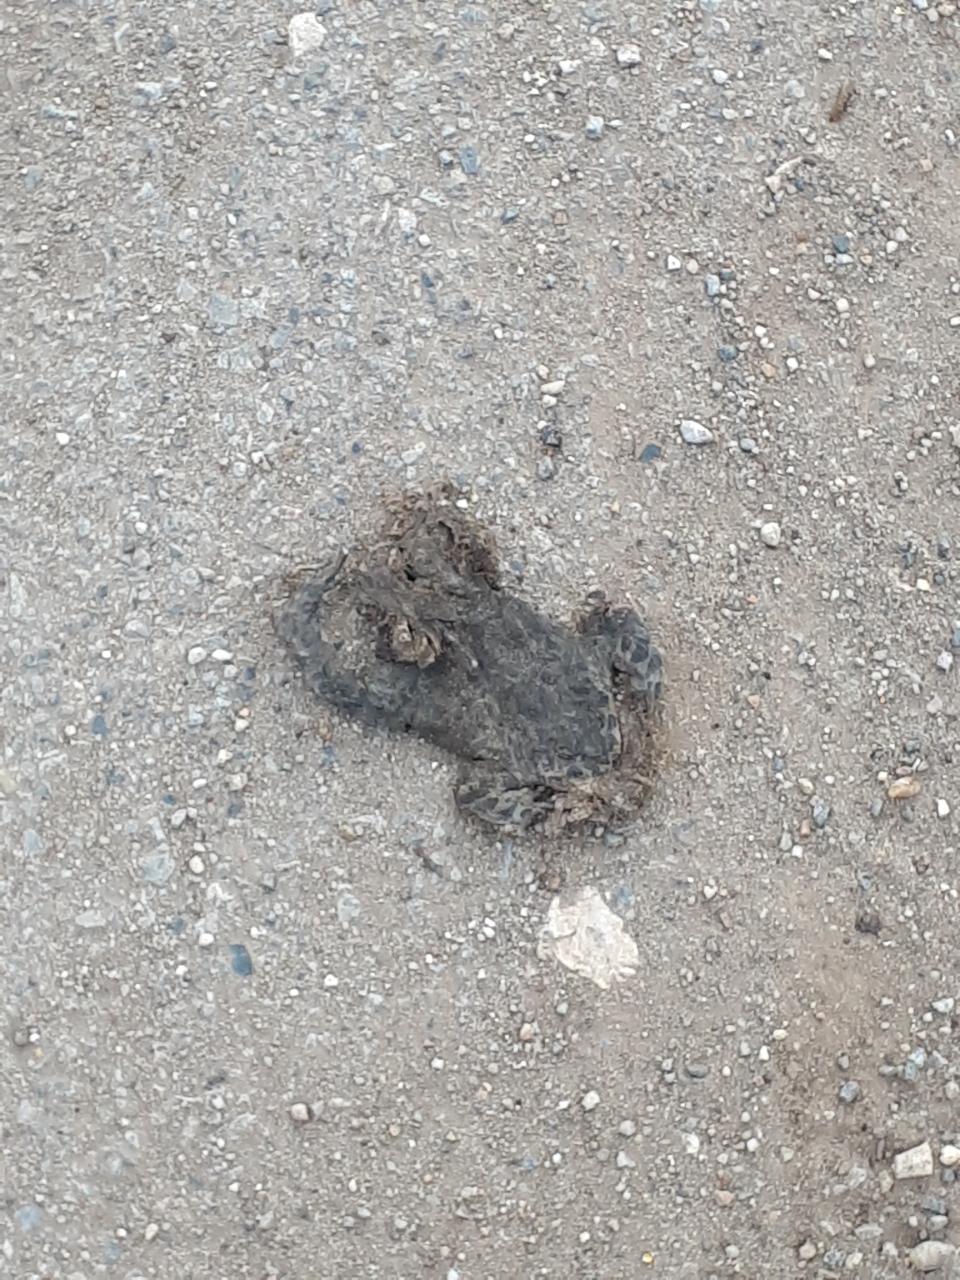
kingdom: Animalia
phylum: Chordata
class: Amphibia
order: Anura
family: Bufonidae
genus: Bufotes
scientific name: Bufotes viridis
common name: European green toad
